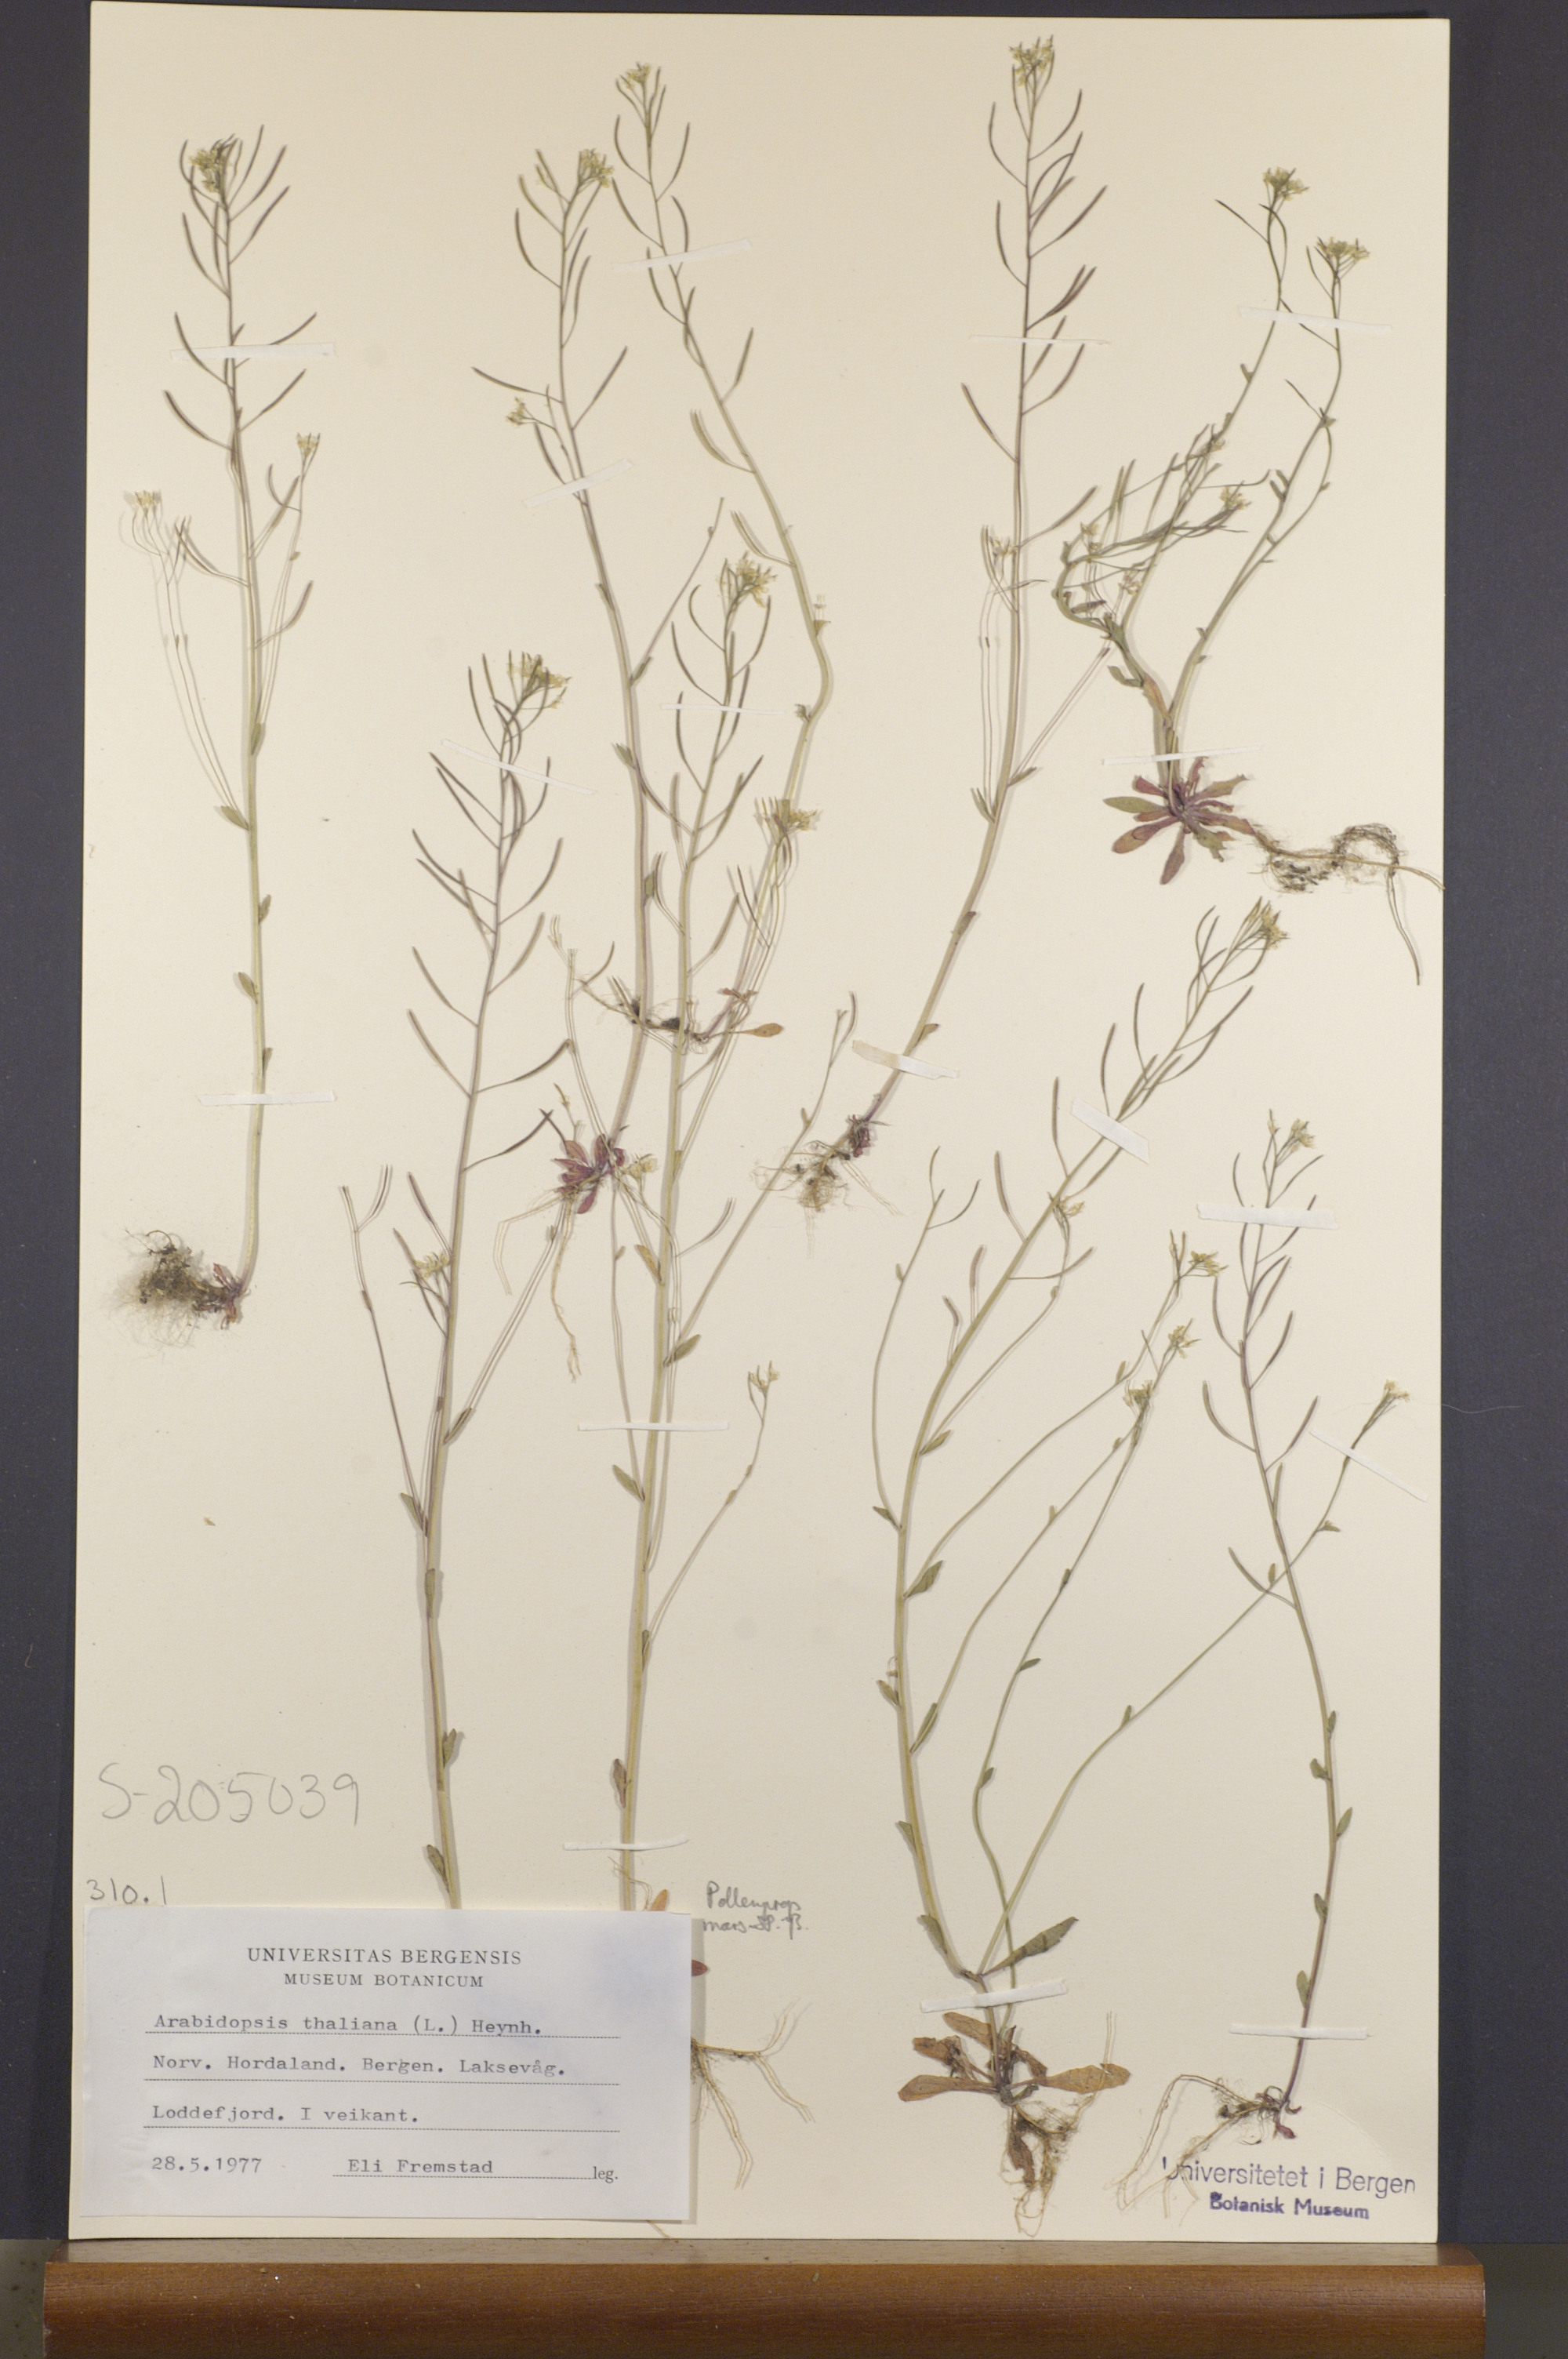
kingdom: Plantae
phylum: Tracheophyta
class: Magnoliopsida
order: Brassicales
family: Brassicaceae
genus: Arabidopsis
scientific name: Arabidopsis thaliana
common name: Thale cress
